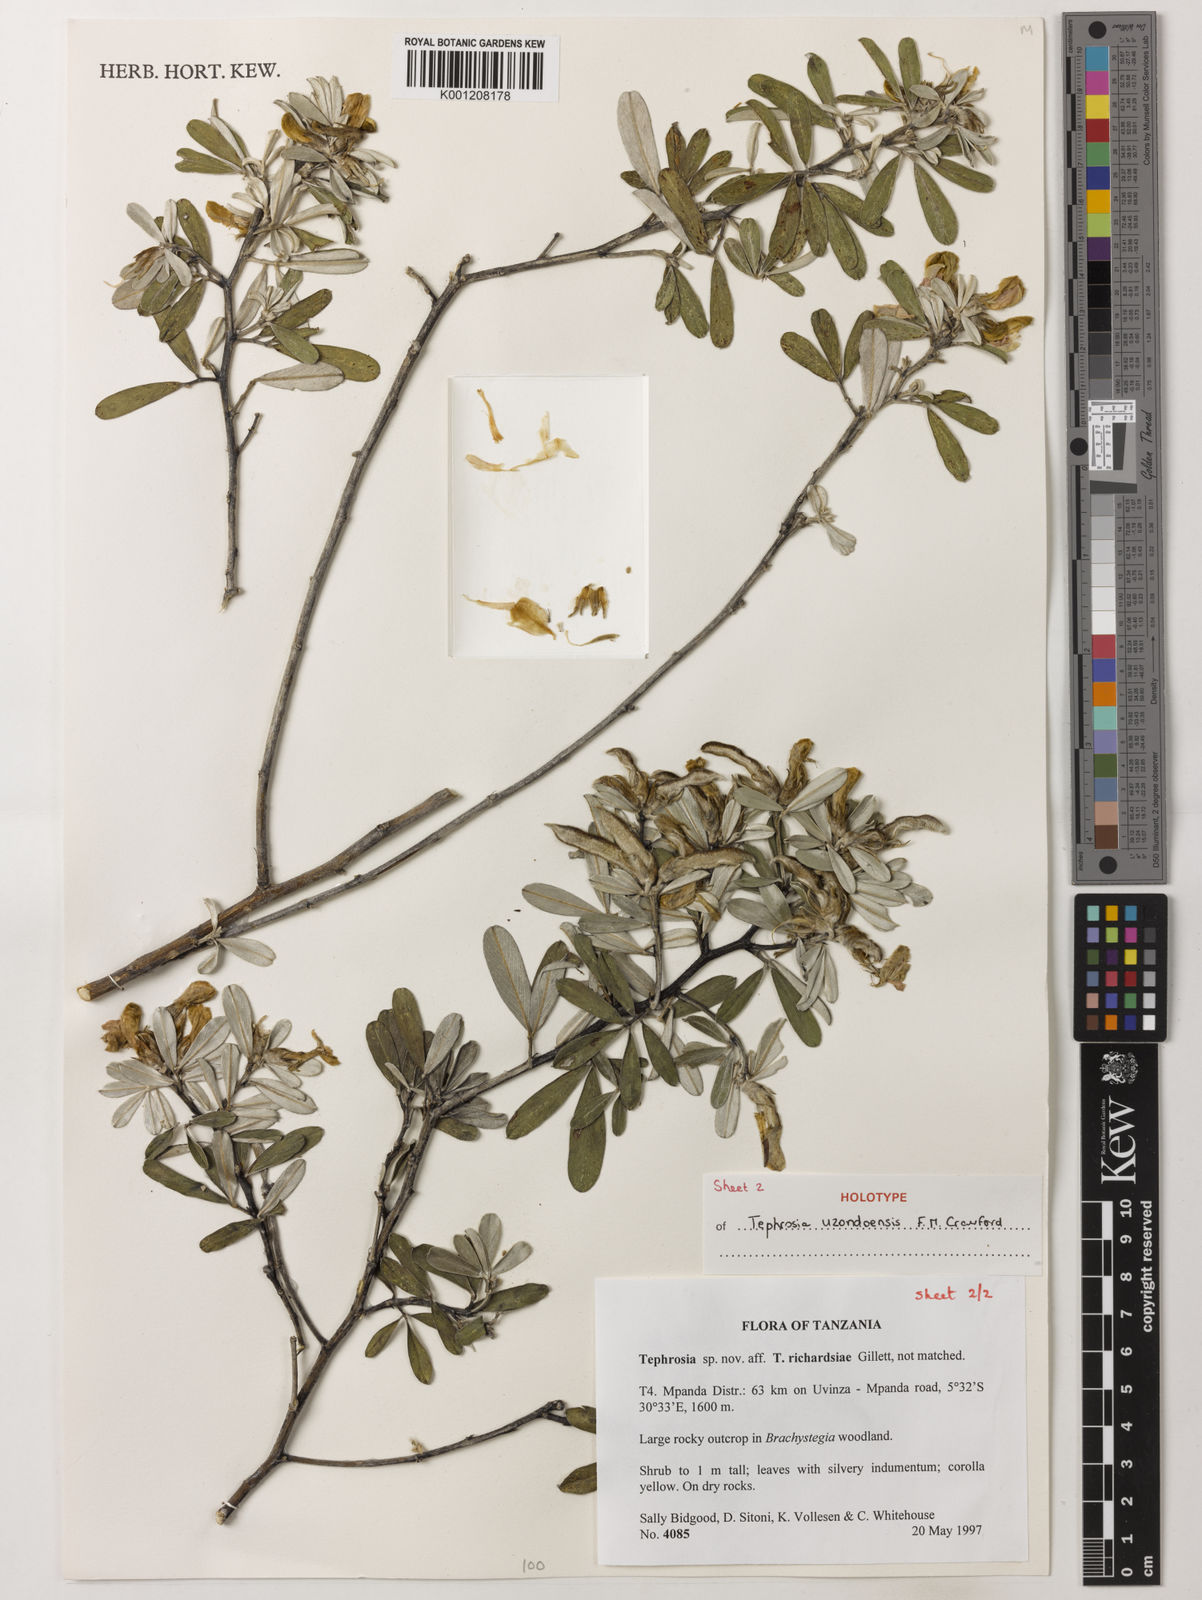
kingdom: Plantae
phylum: Tracheophyta
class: Magnoliopsida
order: Fabales
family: Fabaceae
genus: Crotalaria
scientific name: Crotalaria
